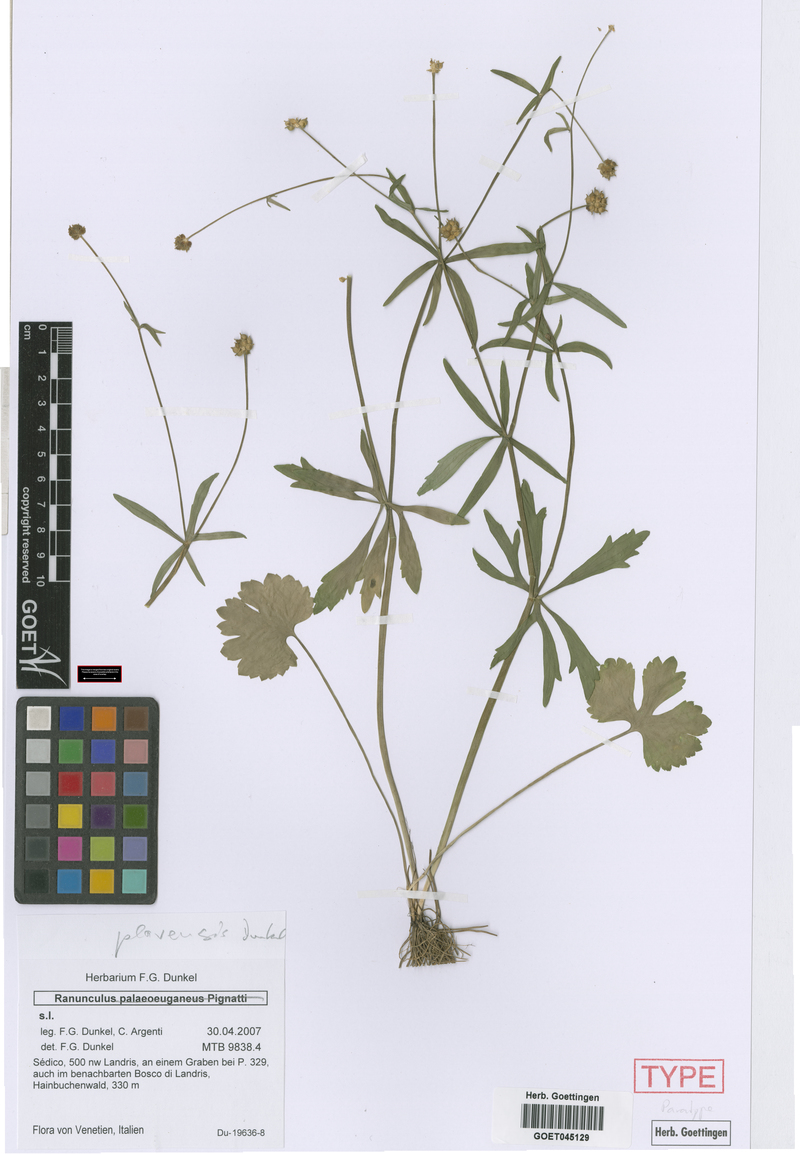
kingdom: Plantae
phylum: Tracheophyta
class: Magnoliopsida
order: Ranunculales
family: Ranunculaceae
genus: Ranunculus
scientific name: Ranunculus palaeoeuganeus
